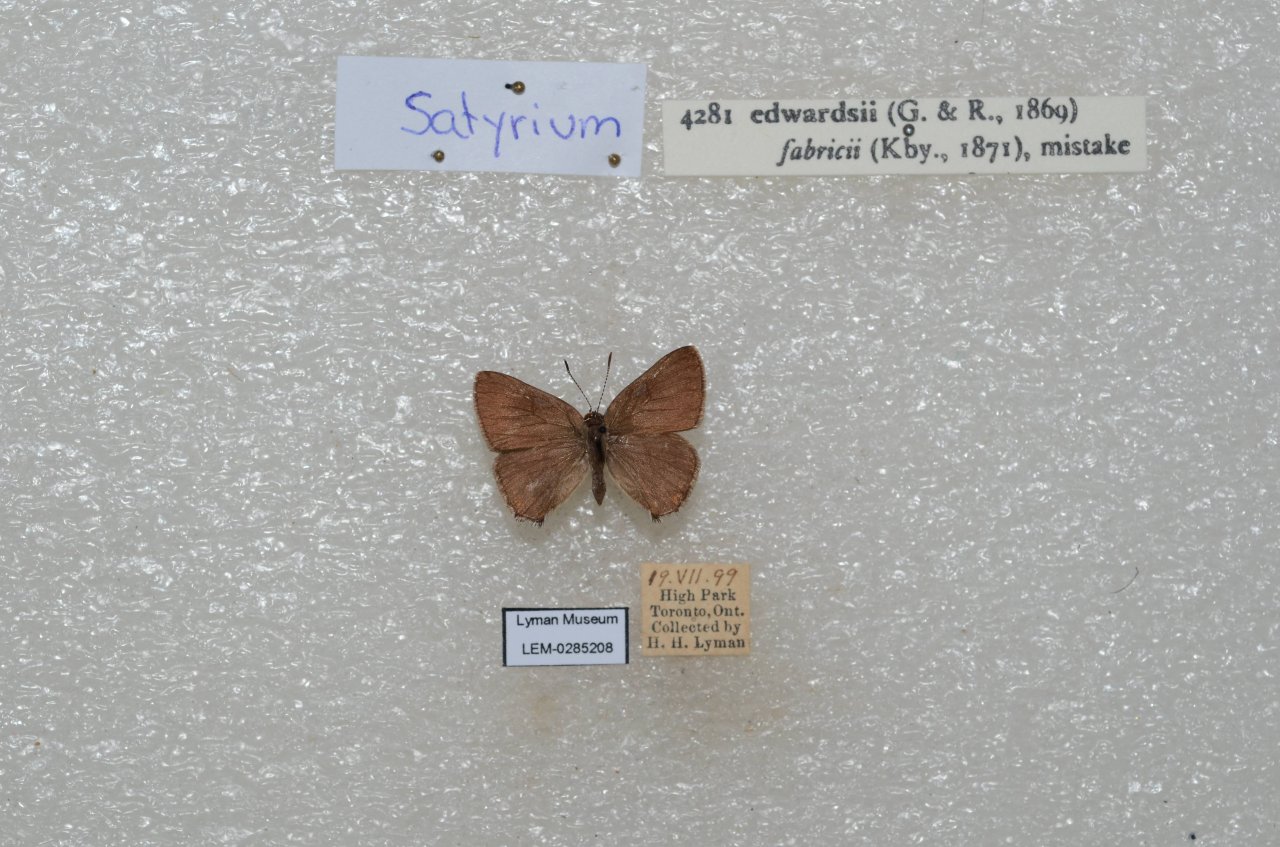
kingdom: Animalia
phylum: Arthropoda
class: Insecta
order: Lepidoptera
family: Lycaenidae
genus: Satyrium
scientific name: Satyrium edwardsii
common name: Edwards' Hairstreak
